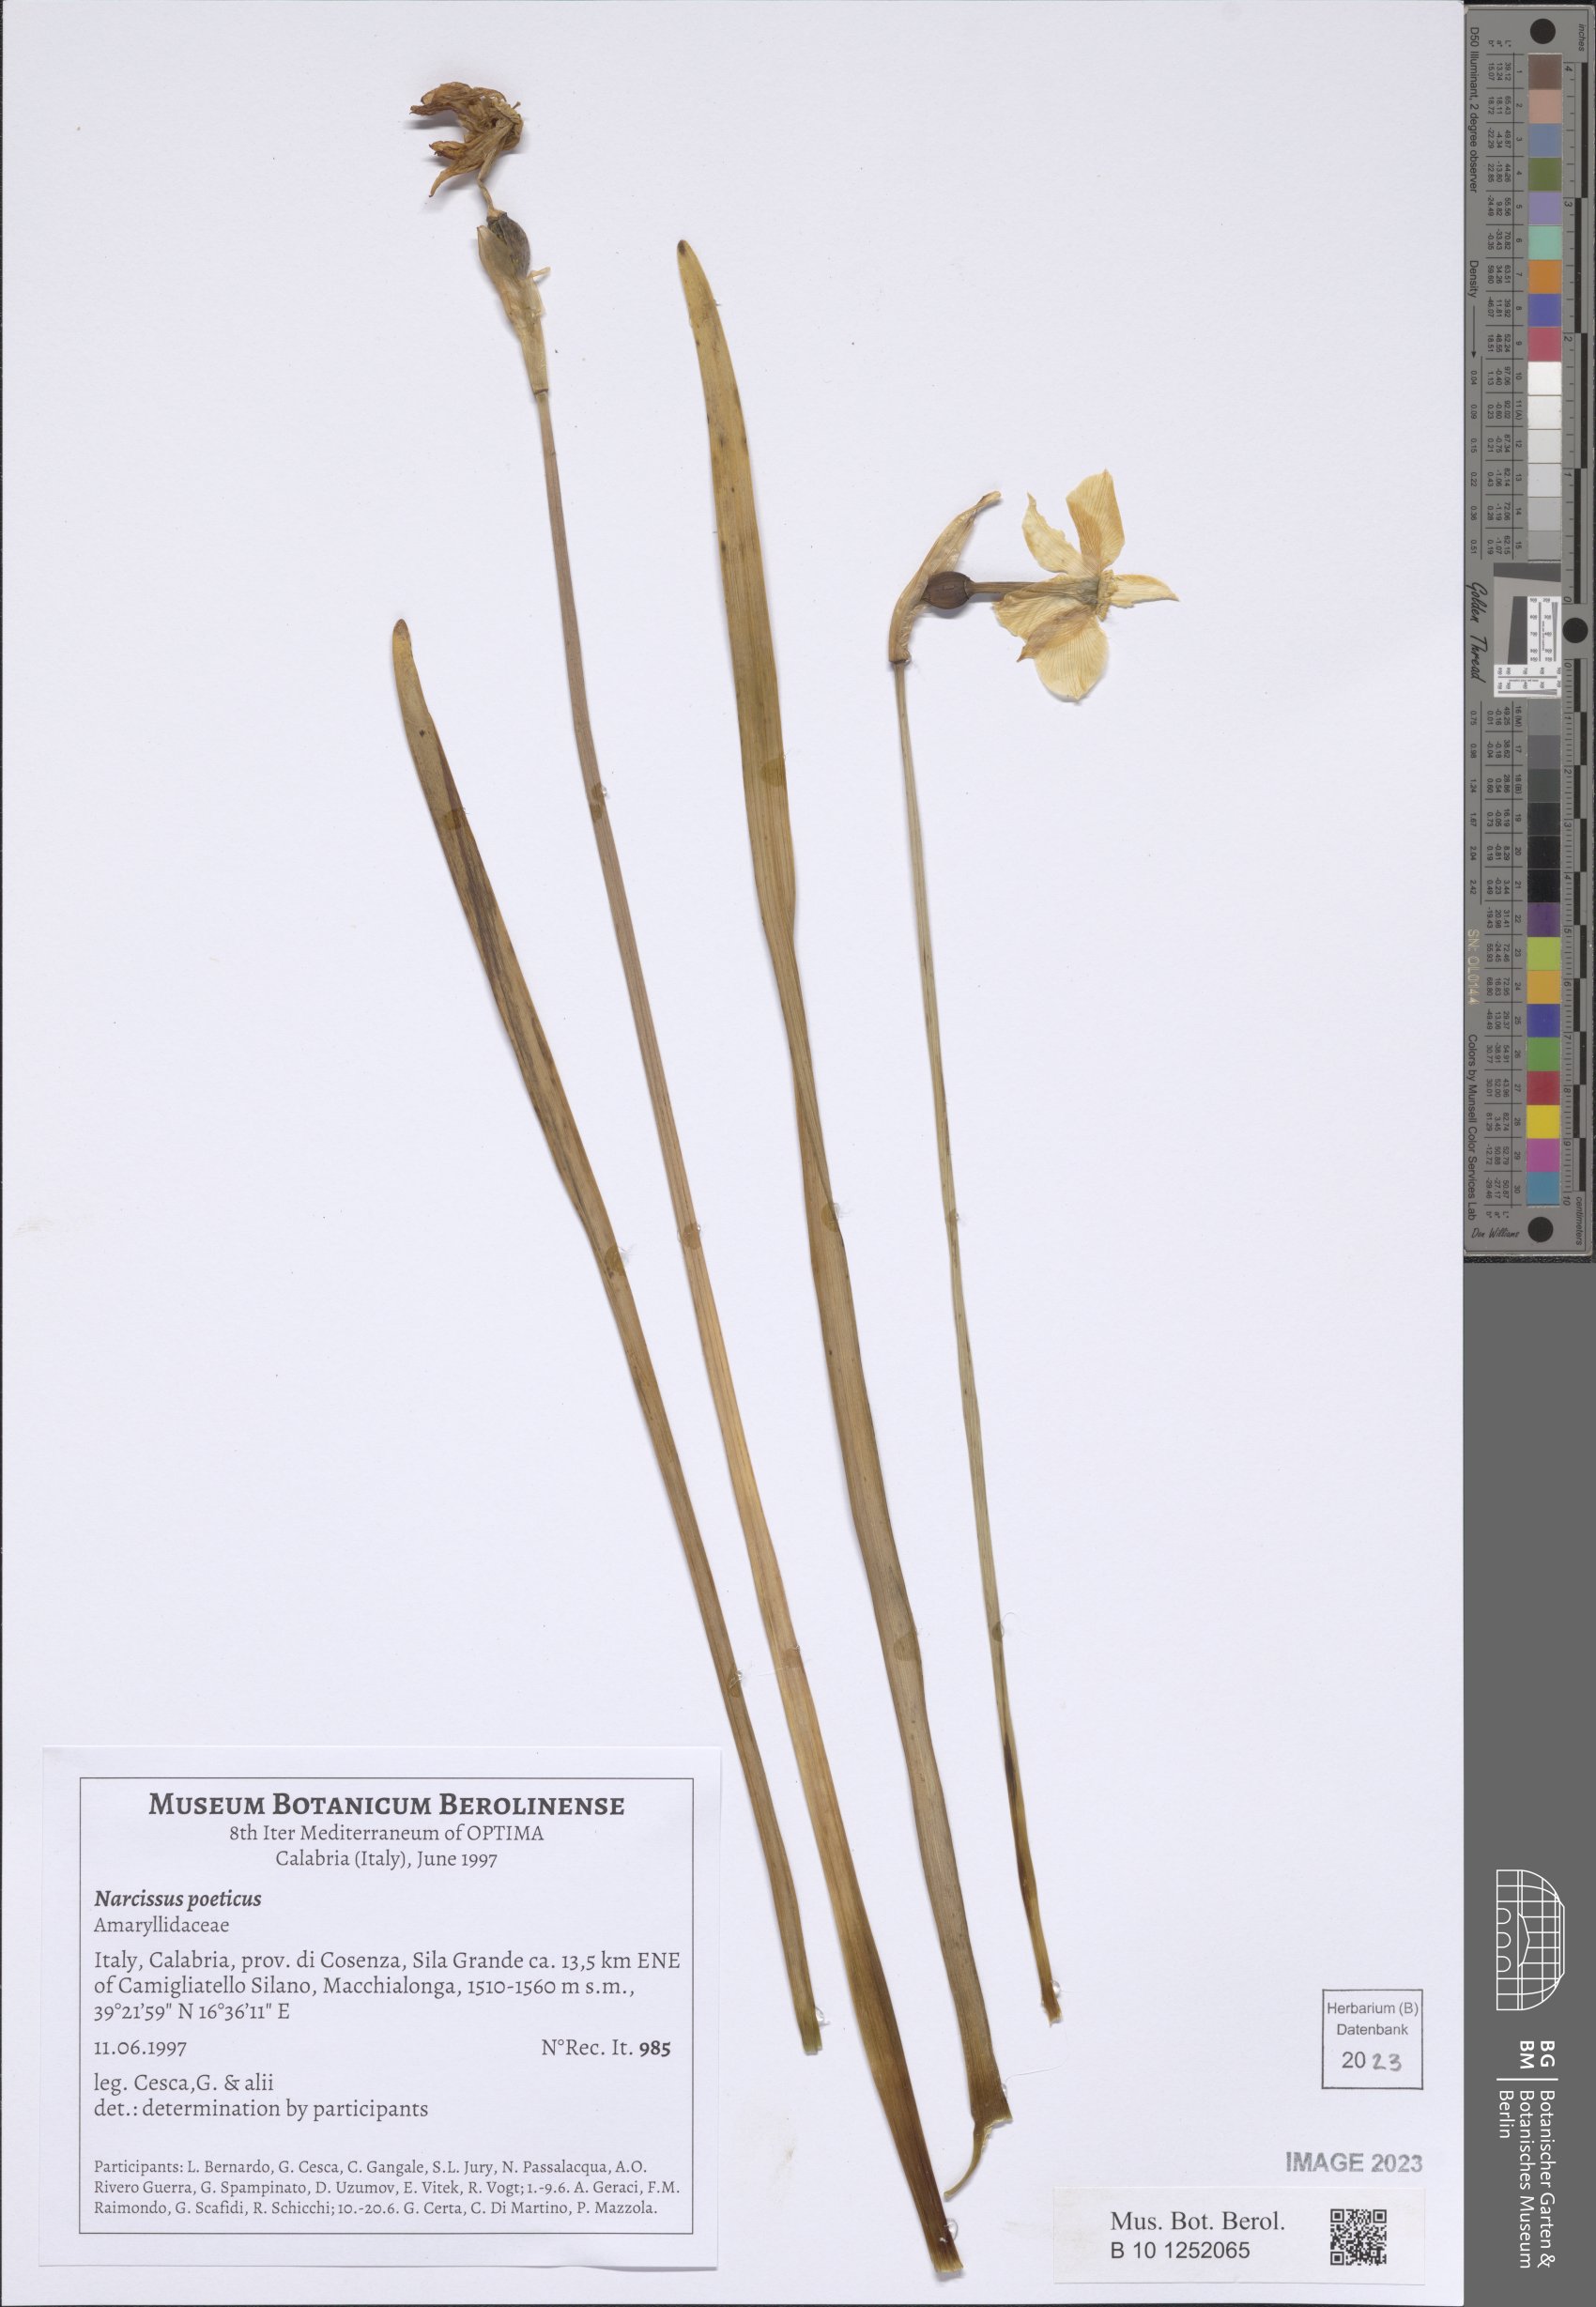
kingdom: Plantae
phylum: Tracheophyta
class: Liliopsida
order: Asparagales
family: Amaryllidaceae
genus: Narcissus
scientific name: Narcissus poeticus
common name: Pheasant's-eye daffodil
